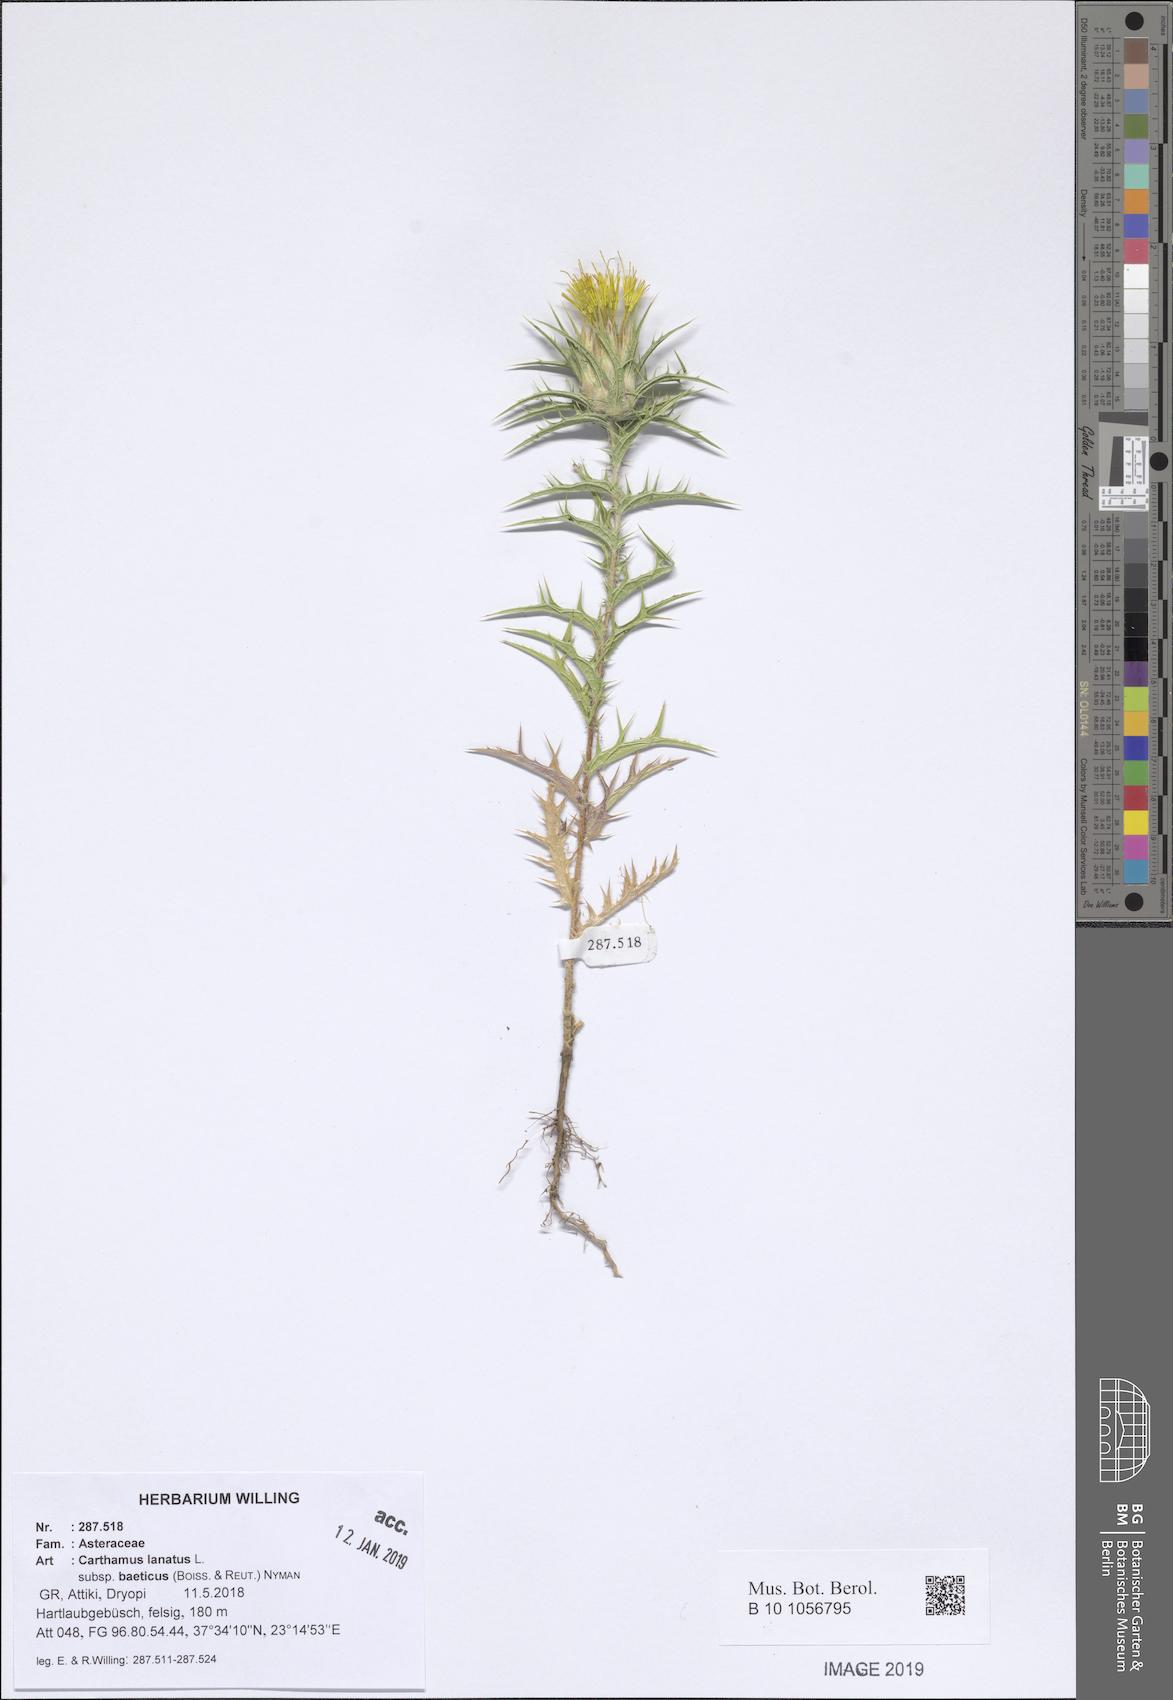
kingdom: Plantae
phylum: Tracheophyta
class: Magnoliopsida
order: Asterales
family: Asteraceae
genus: Carthamus
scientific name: Carthamus creticus
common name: Smooth distaff thistle
